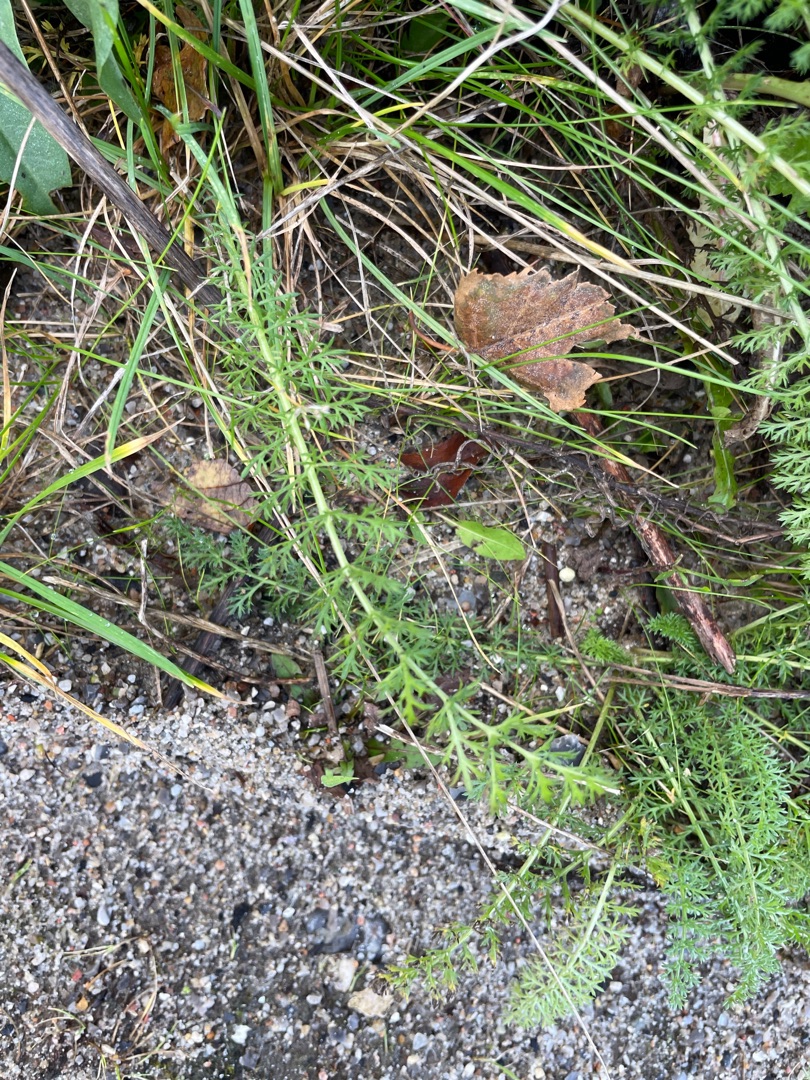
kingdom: Plantae
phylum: Tracheophyta
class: Magnoliopsida
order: Asterales
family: Asteraceae
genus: Achillea
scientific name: Achillea millefolium
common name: Almindelig røllike
